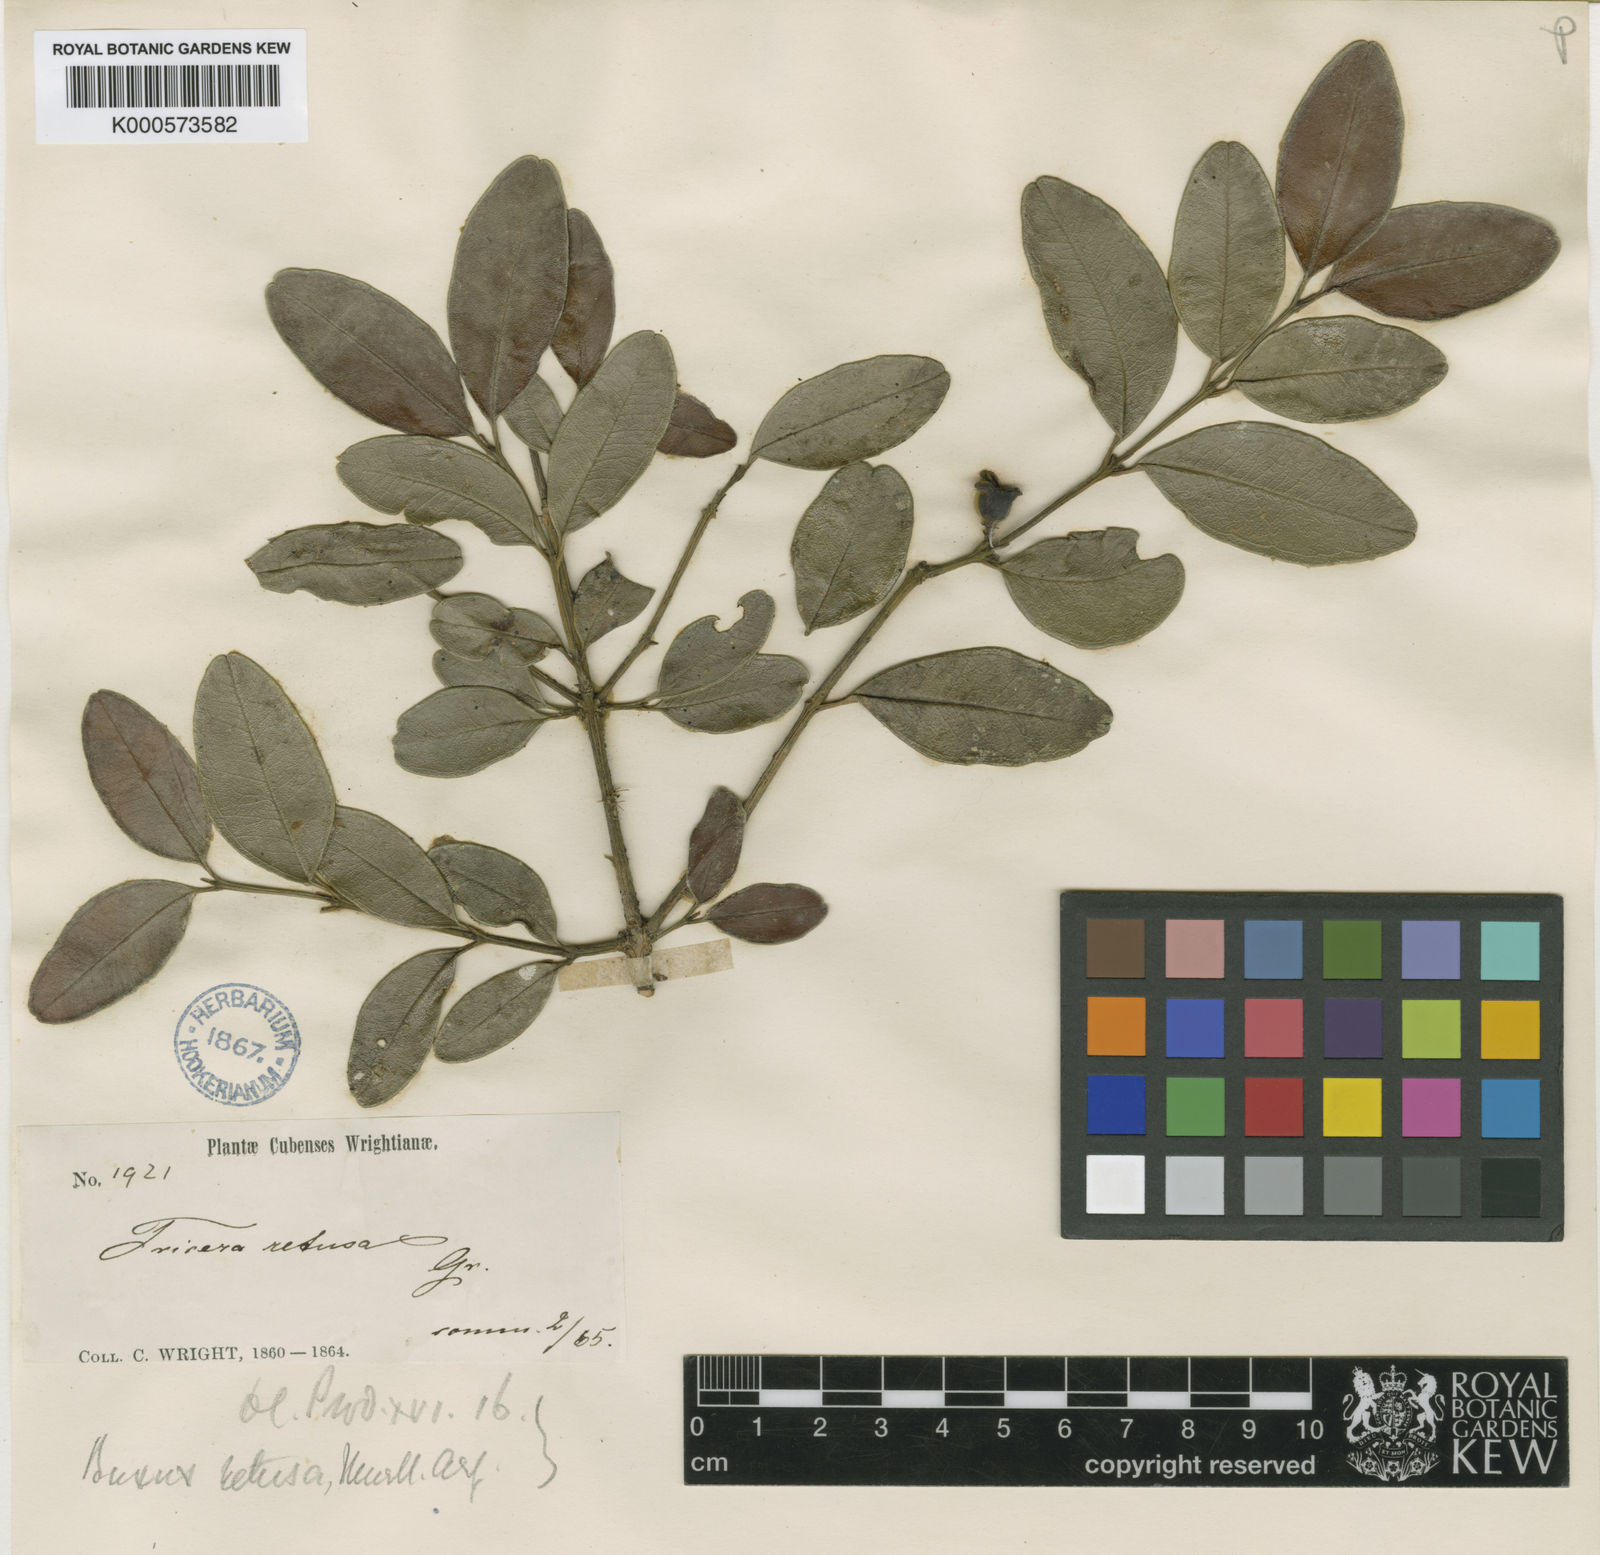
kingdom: Plantae
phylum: Tracheophyta
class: Magnoliopsida
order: Buxales
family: Buxaceae
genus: Buxus
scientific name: Buxus
